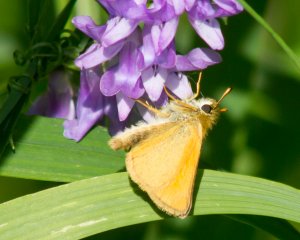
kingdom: Animalia
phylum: Arthropoda
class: Insecta
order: Lepidoptera
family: Hesperiidae
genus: Thymelicus
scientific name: Thymelicus lineola
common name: European Skipper
